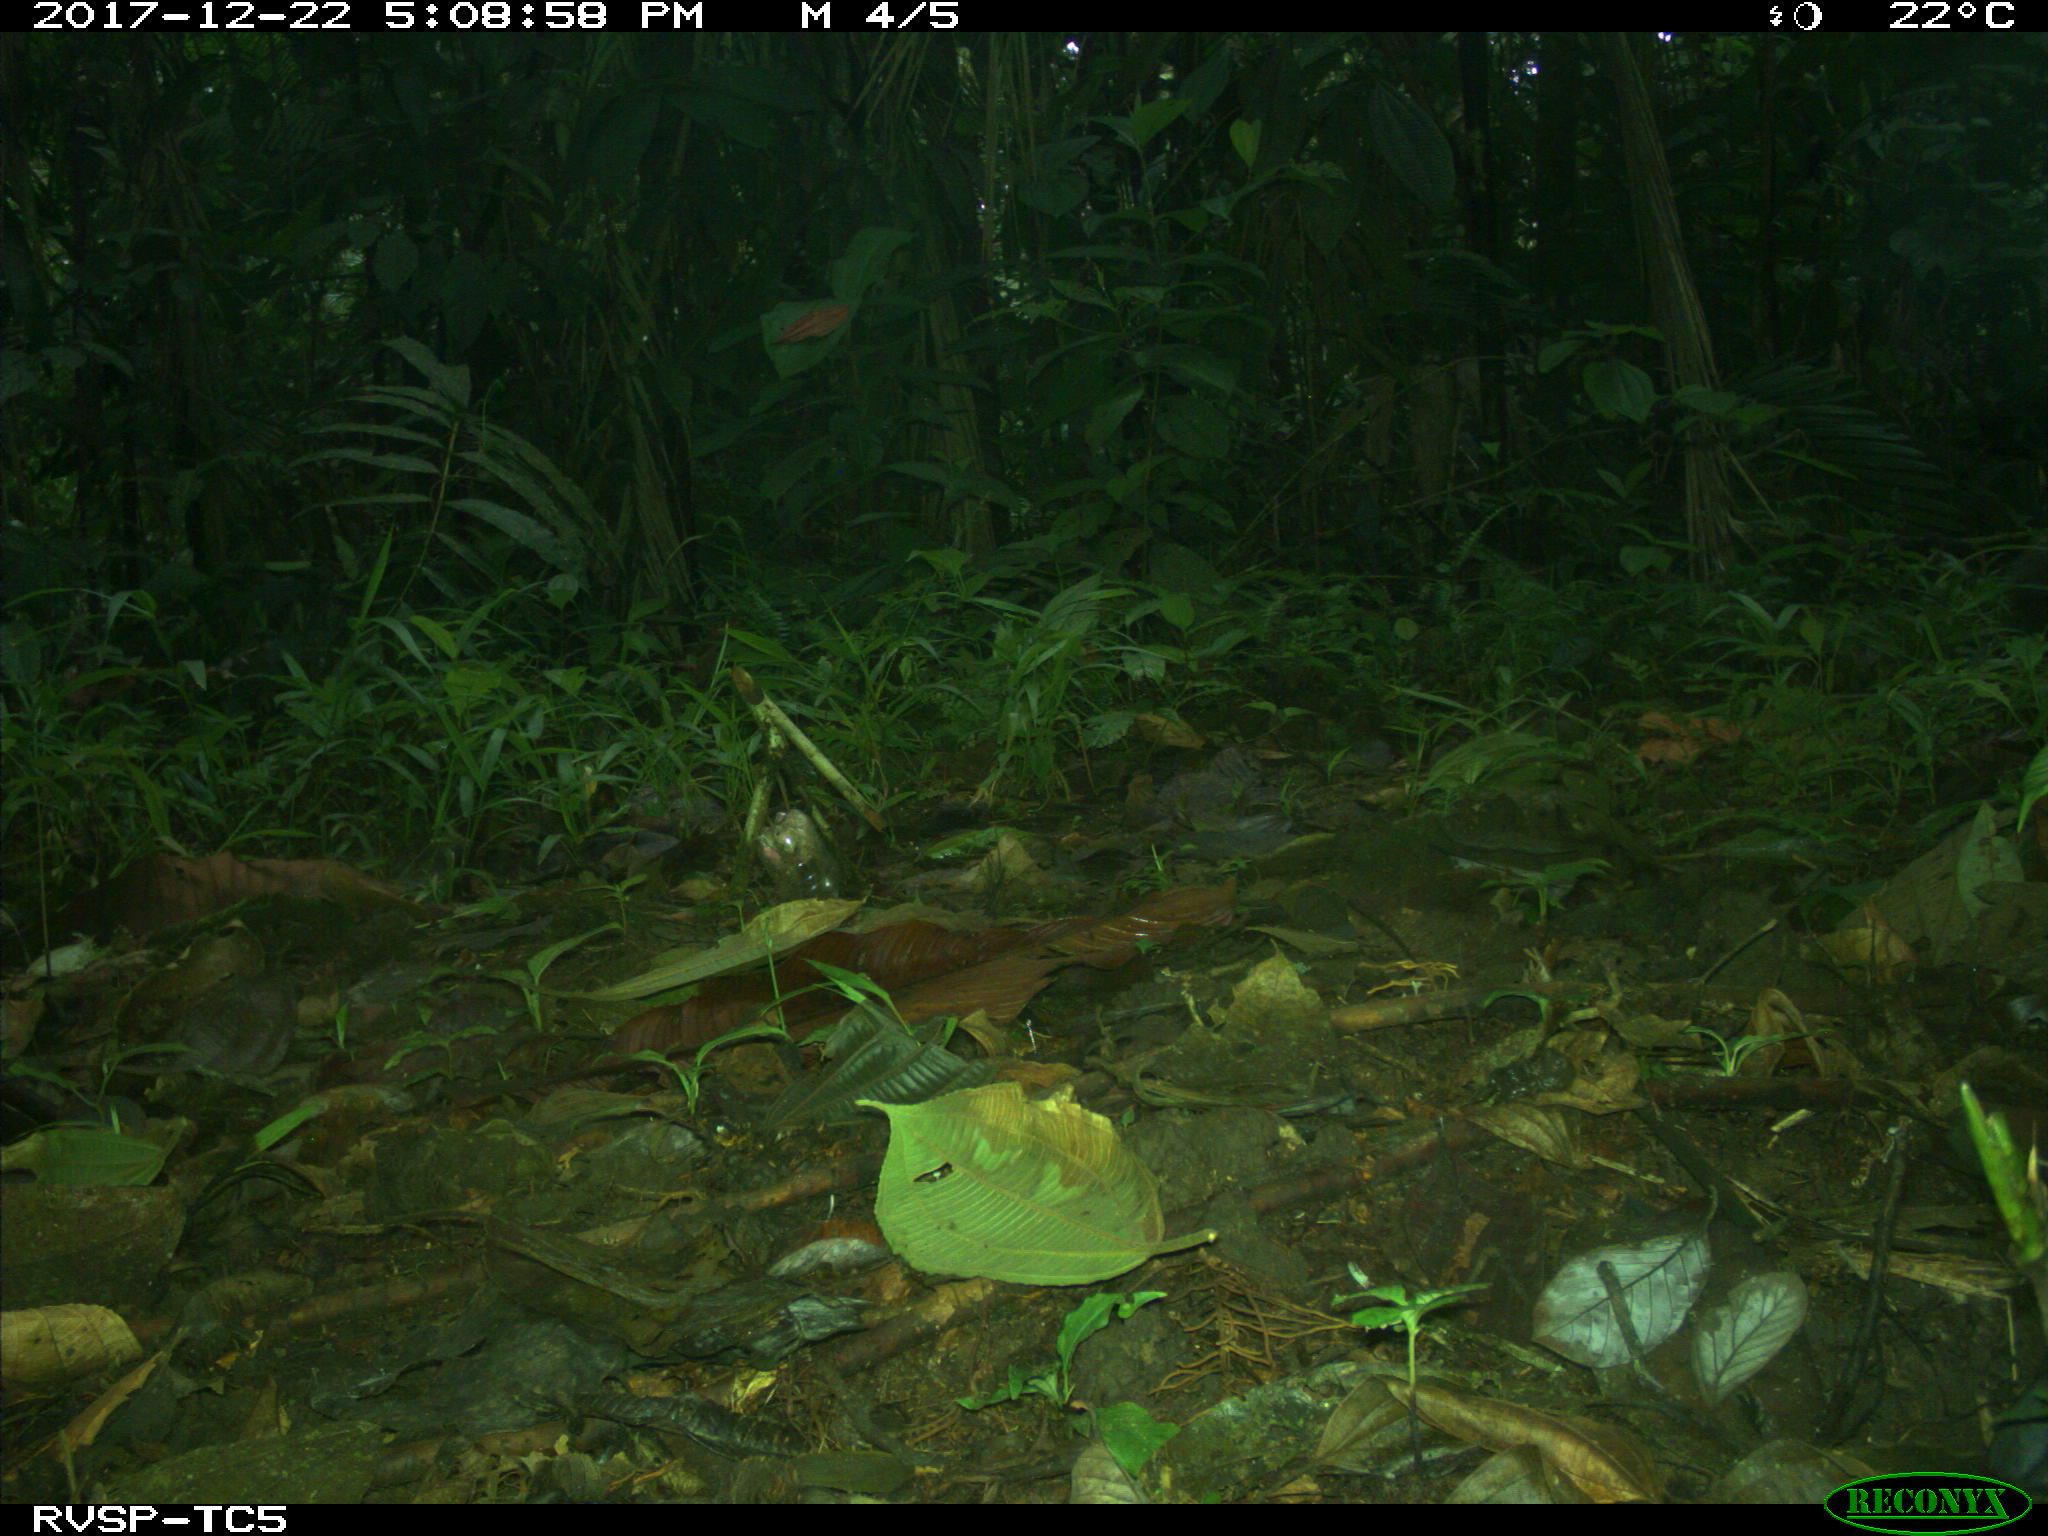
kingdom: Animalia
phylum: Chordata
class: Mammalia
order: Rodentia
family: Dasyproctidae
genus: Dasyprocta
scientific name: Dasyprocta punctata
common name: Central american agouti
